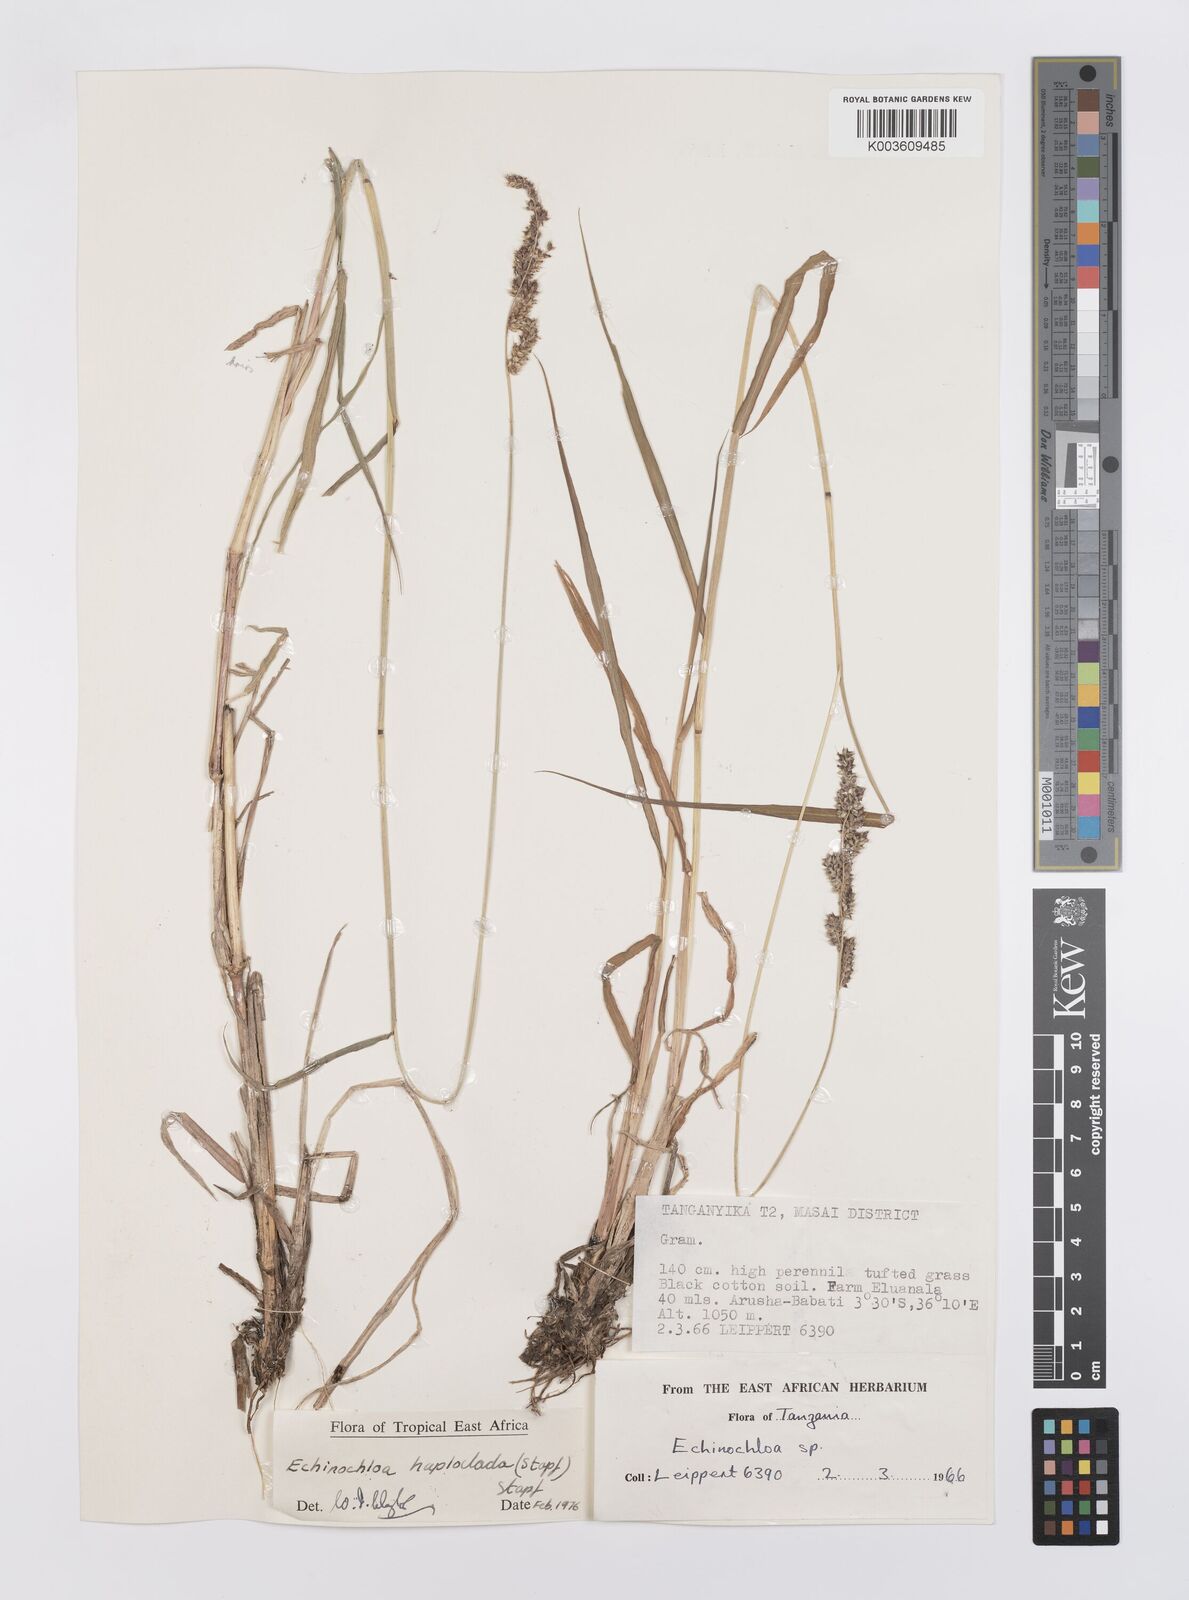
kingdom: Plantae
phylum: Tracheophyta
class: Liliopsida
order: Poales
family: Poaceae
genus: Echinochloa
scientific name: Echinochloa haploclada
